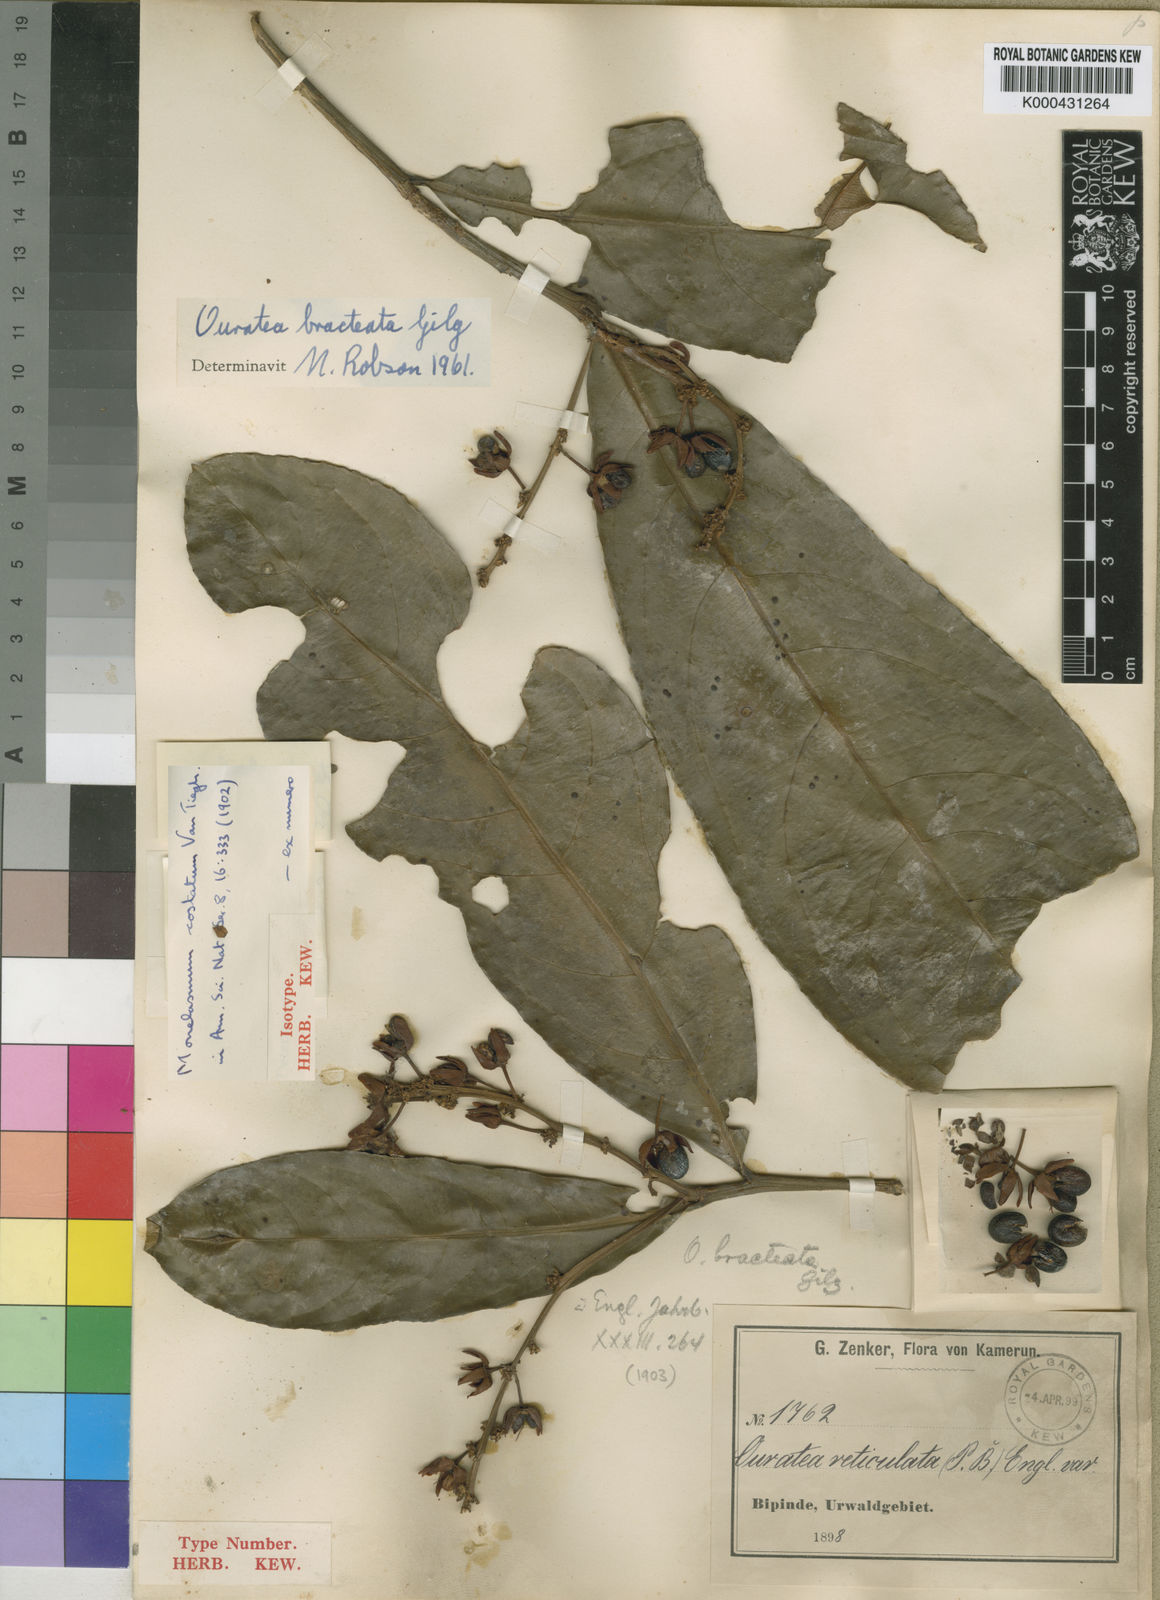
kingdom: Plantae
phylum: Tracheophyta
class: Magnoliopsida
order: Malpighiales
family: Ochnaceae
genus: Campylospermum
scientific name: Campylospermum vogelii
